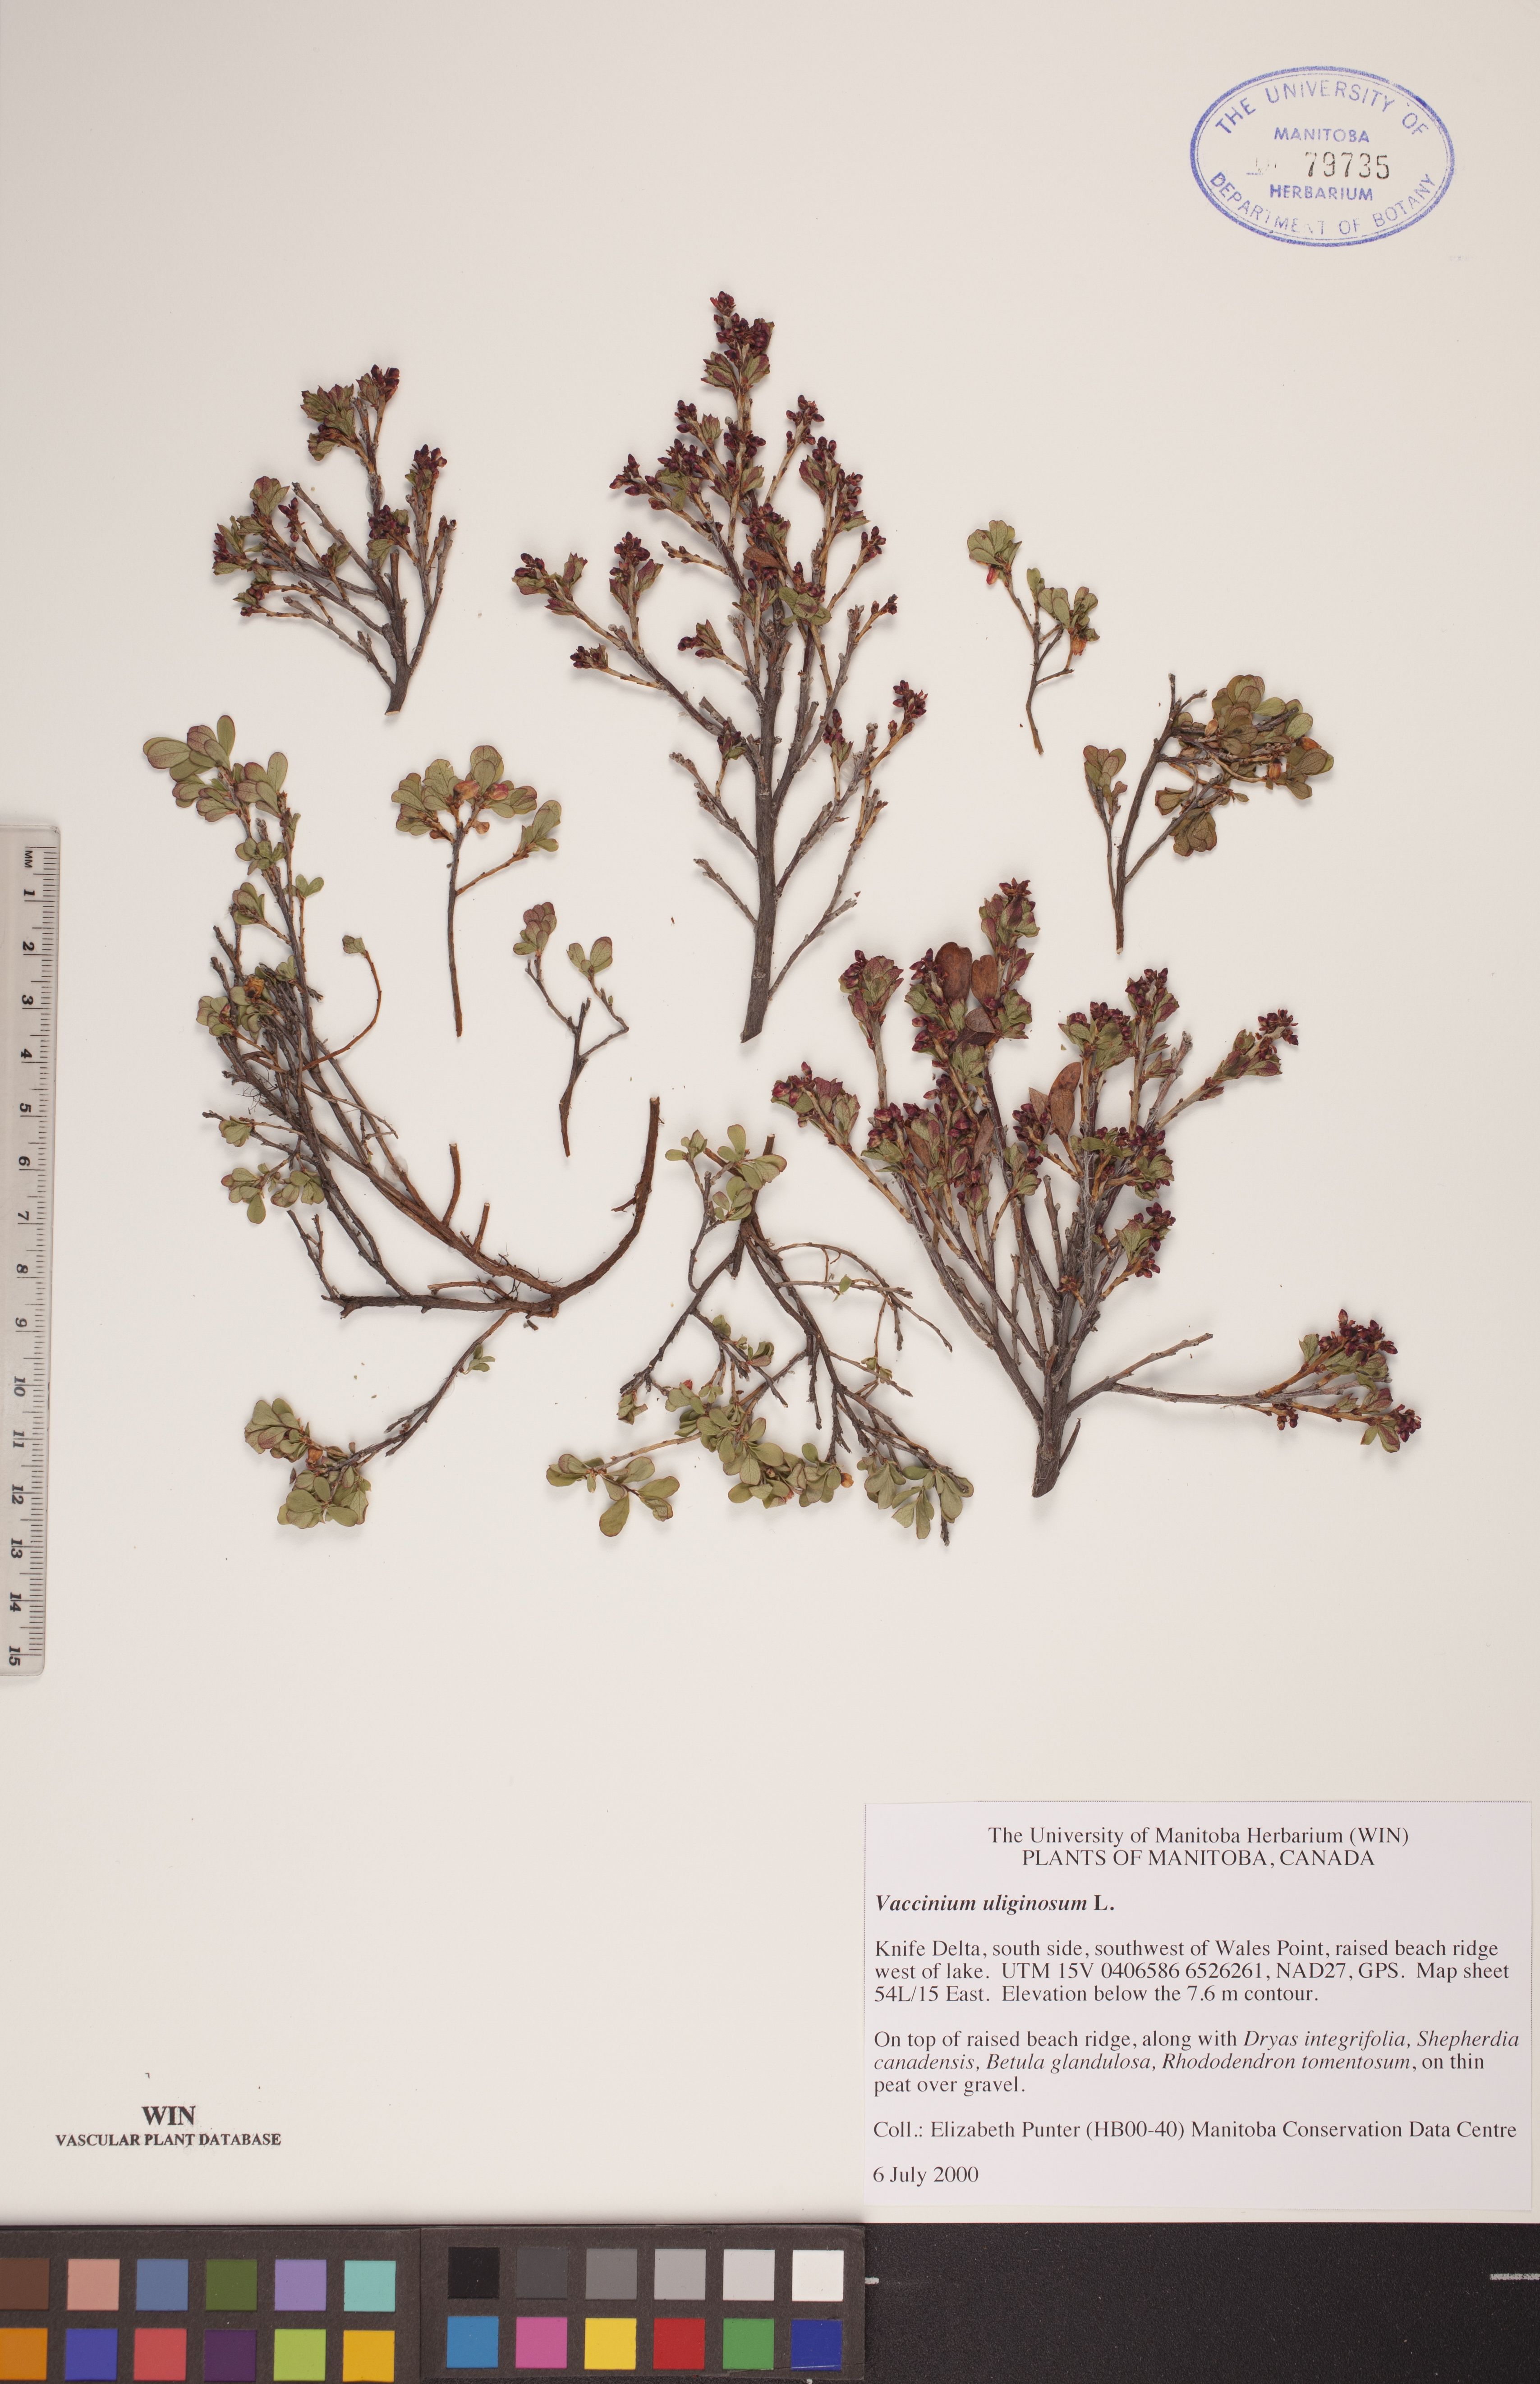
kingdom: Plantae
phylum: Tracheophyta
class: Magnoliopsida
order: Ericales
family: Ericaceae
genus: Vaccinium
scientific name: Vaccinium uliginosum
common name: Bog bilberry
